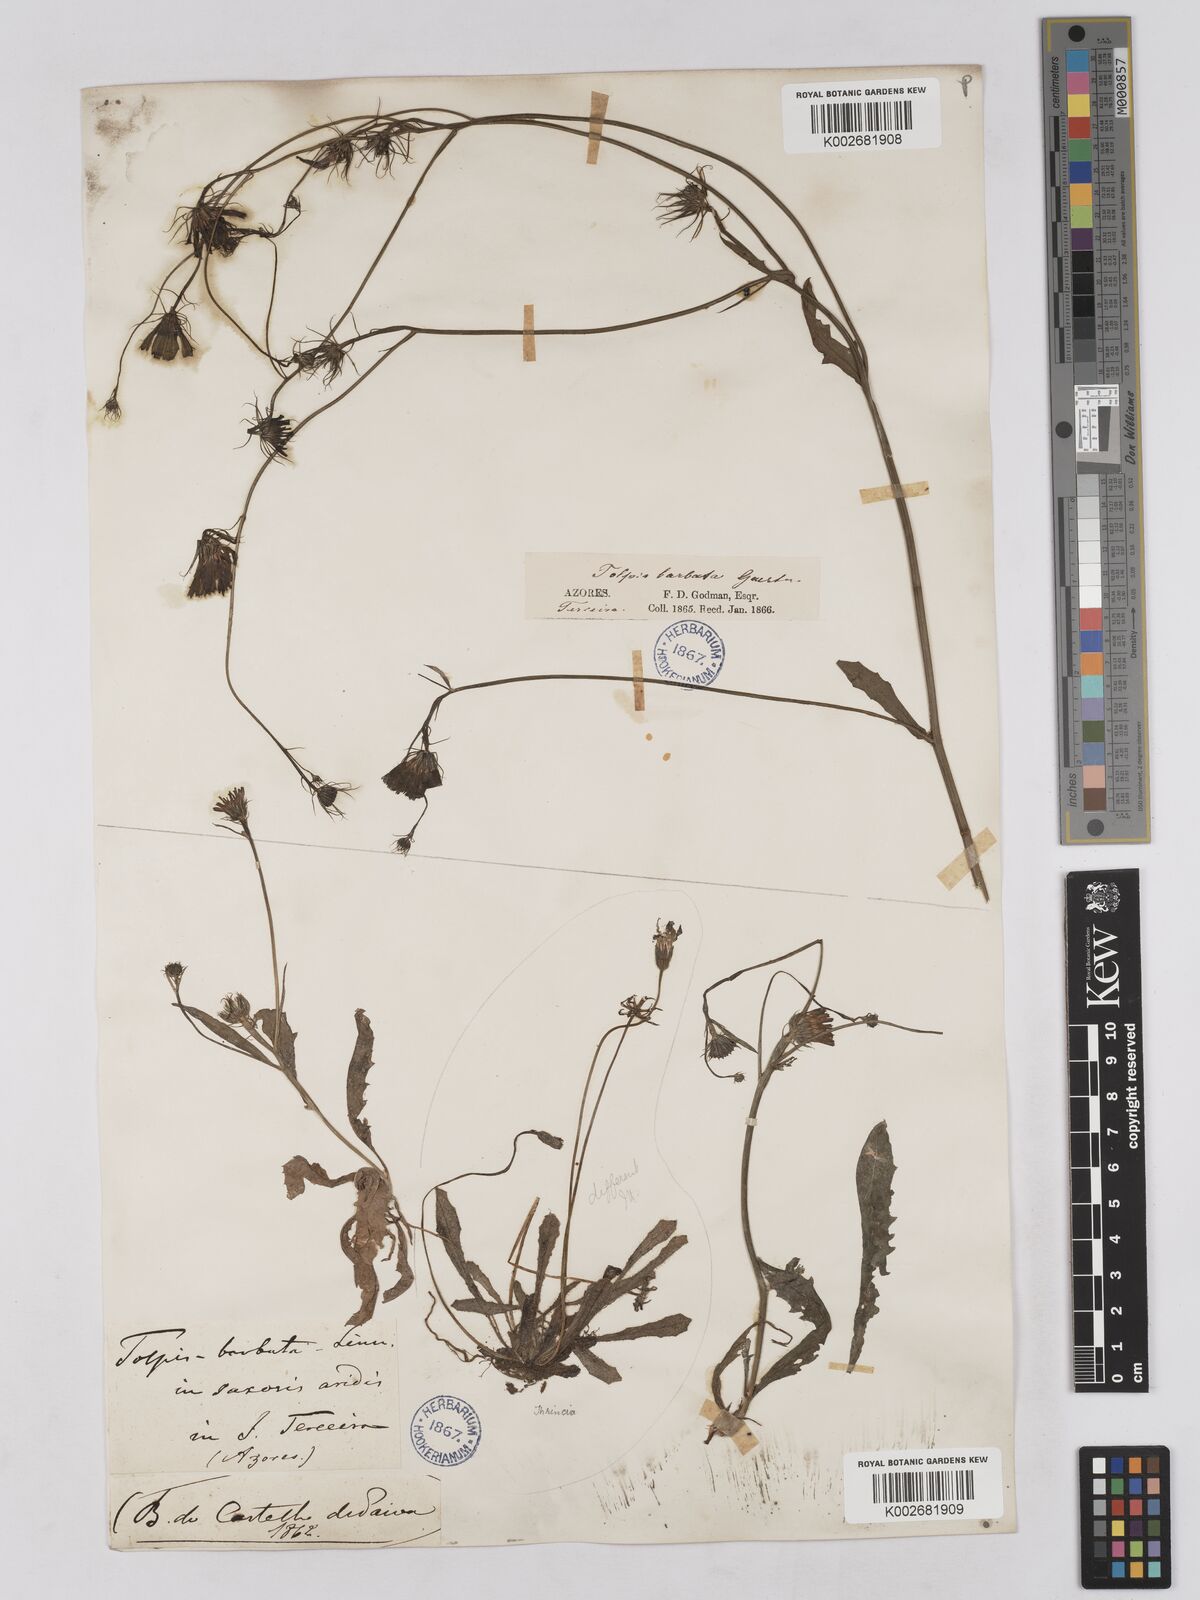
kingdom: Plantae
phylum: Tracheophyta
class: Magnoliopsida
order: Asterales
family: Asteraceae
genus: Tolpis
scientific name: Tolpis barbata
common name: Yellow hawkweed
